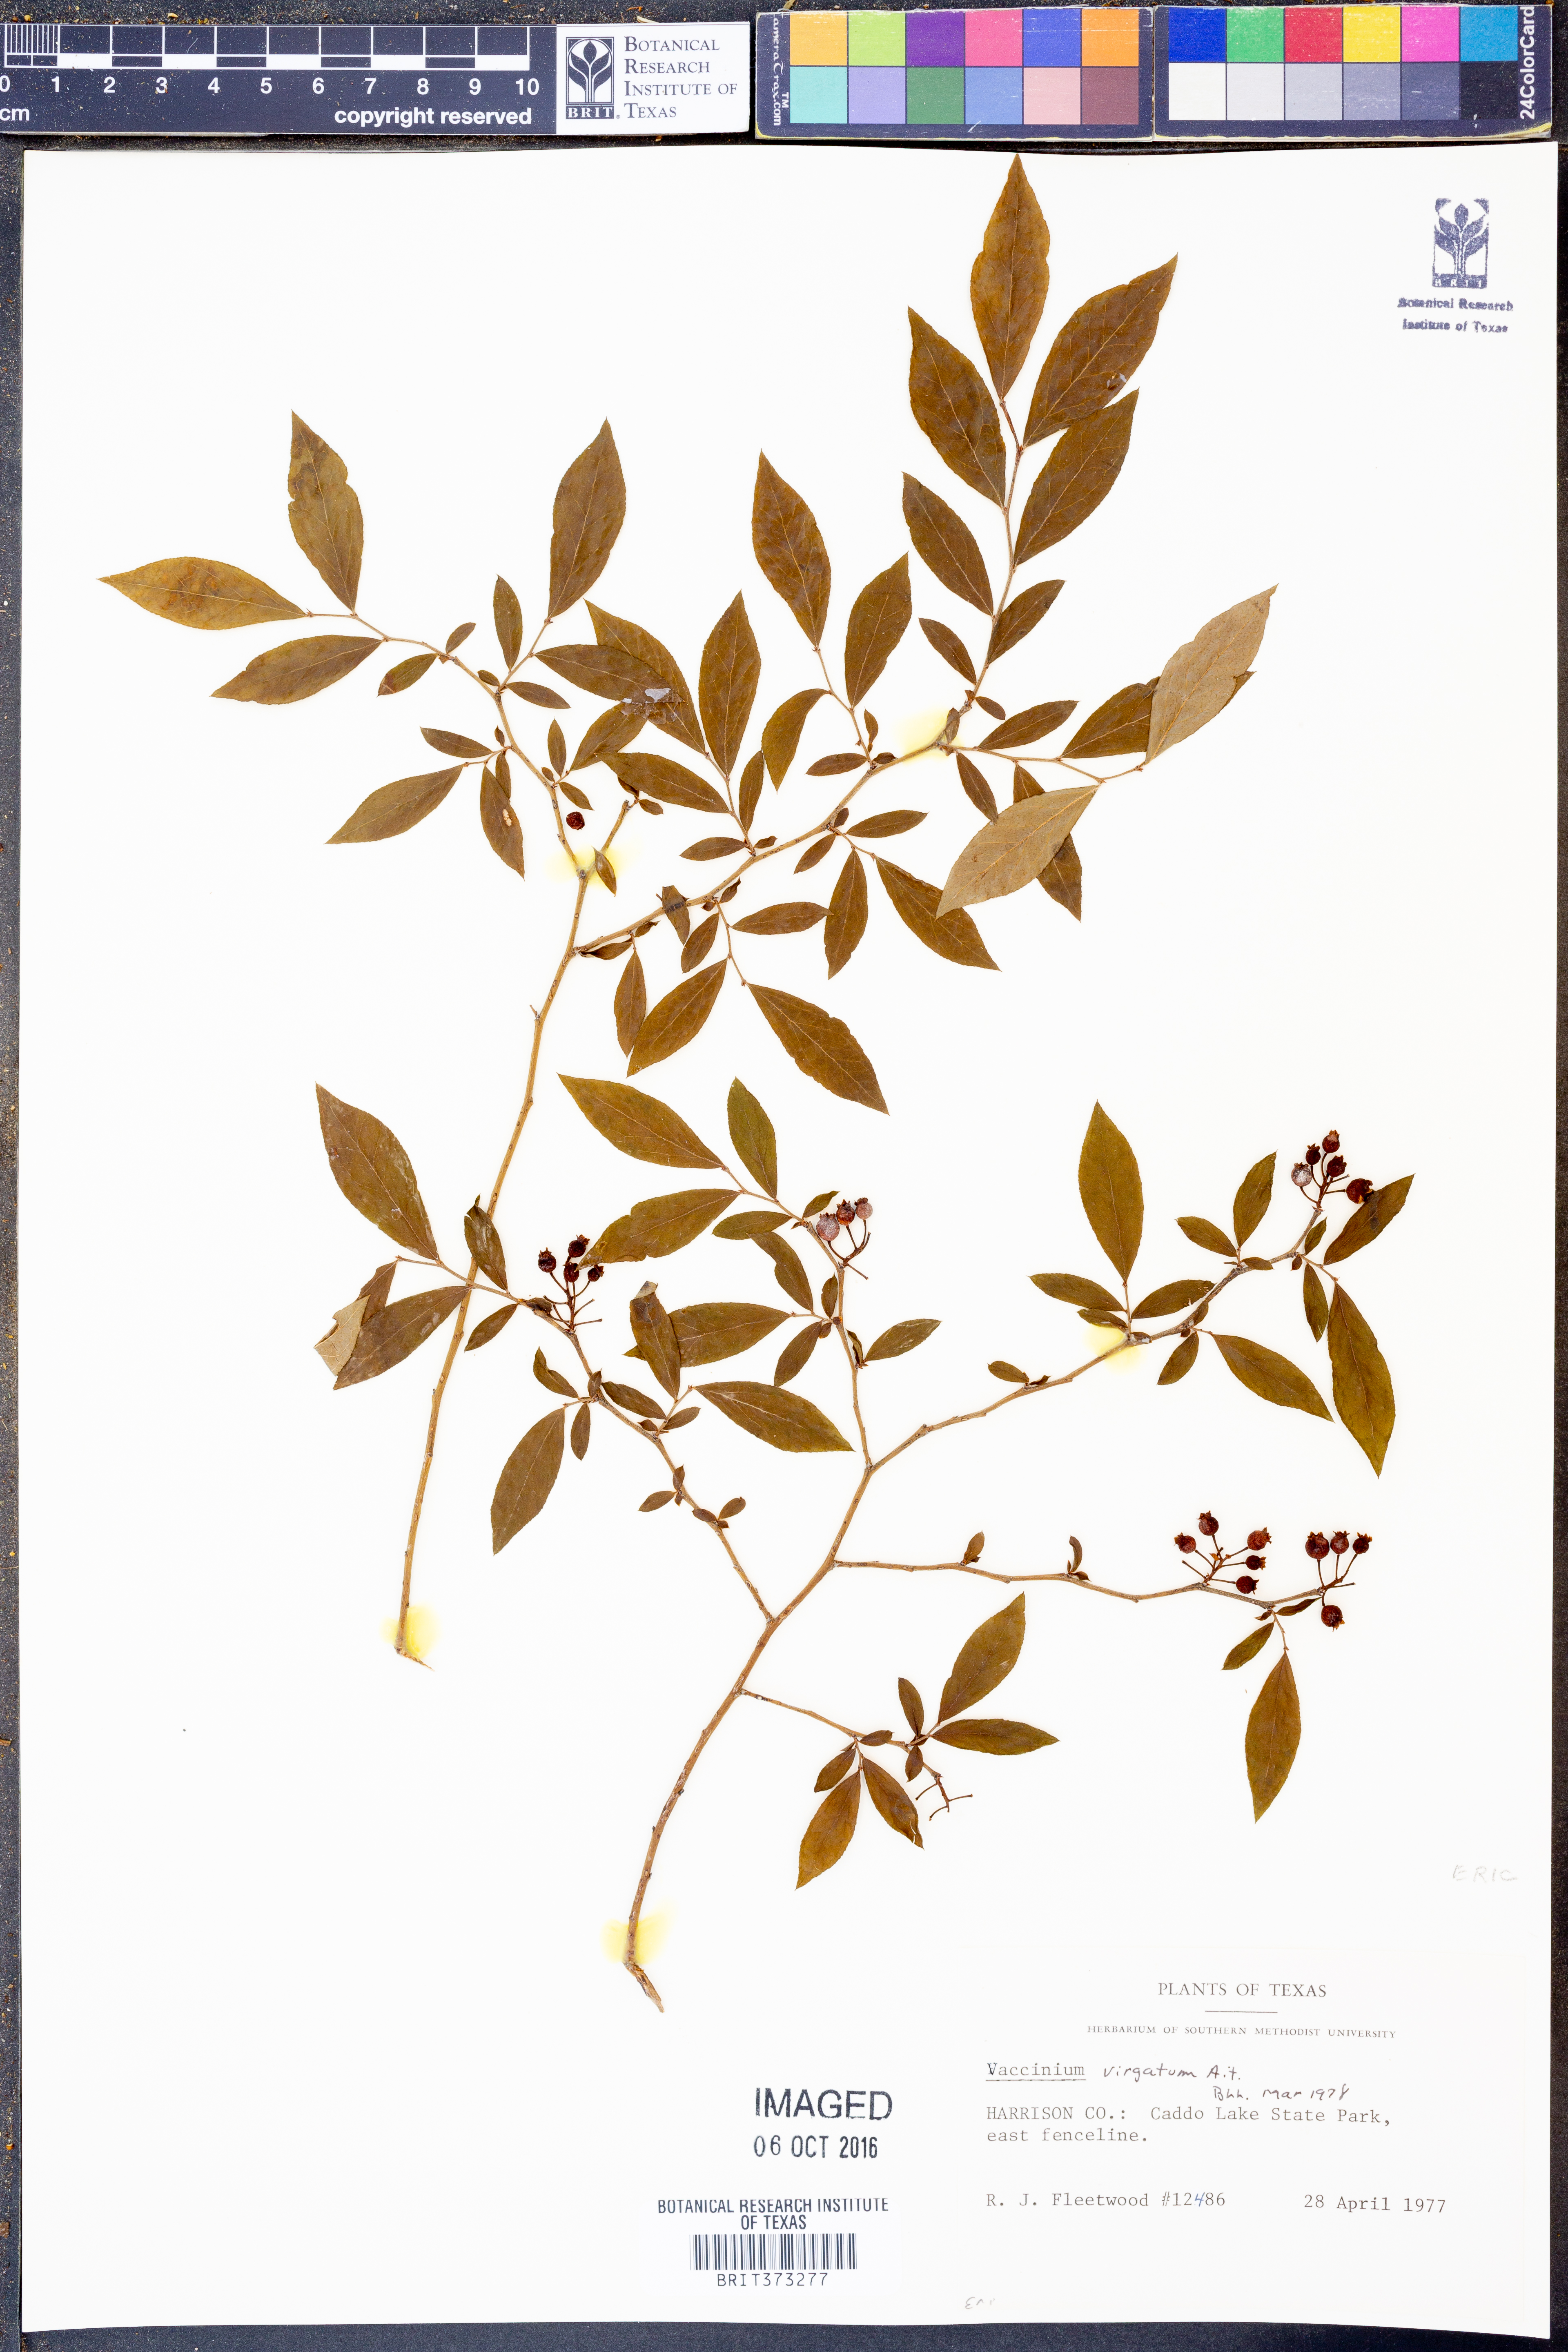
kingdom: Plantae
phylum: Tracheophyta
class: Magnoliopsida
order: Ericales
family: Ericaceae
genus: Vaccinium
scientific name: Vaccinium corymbosum
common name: Blueberry
